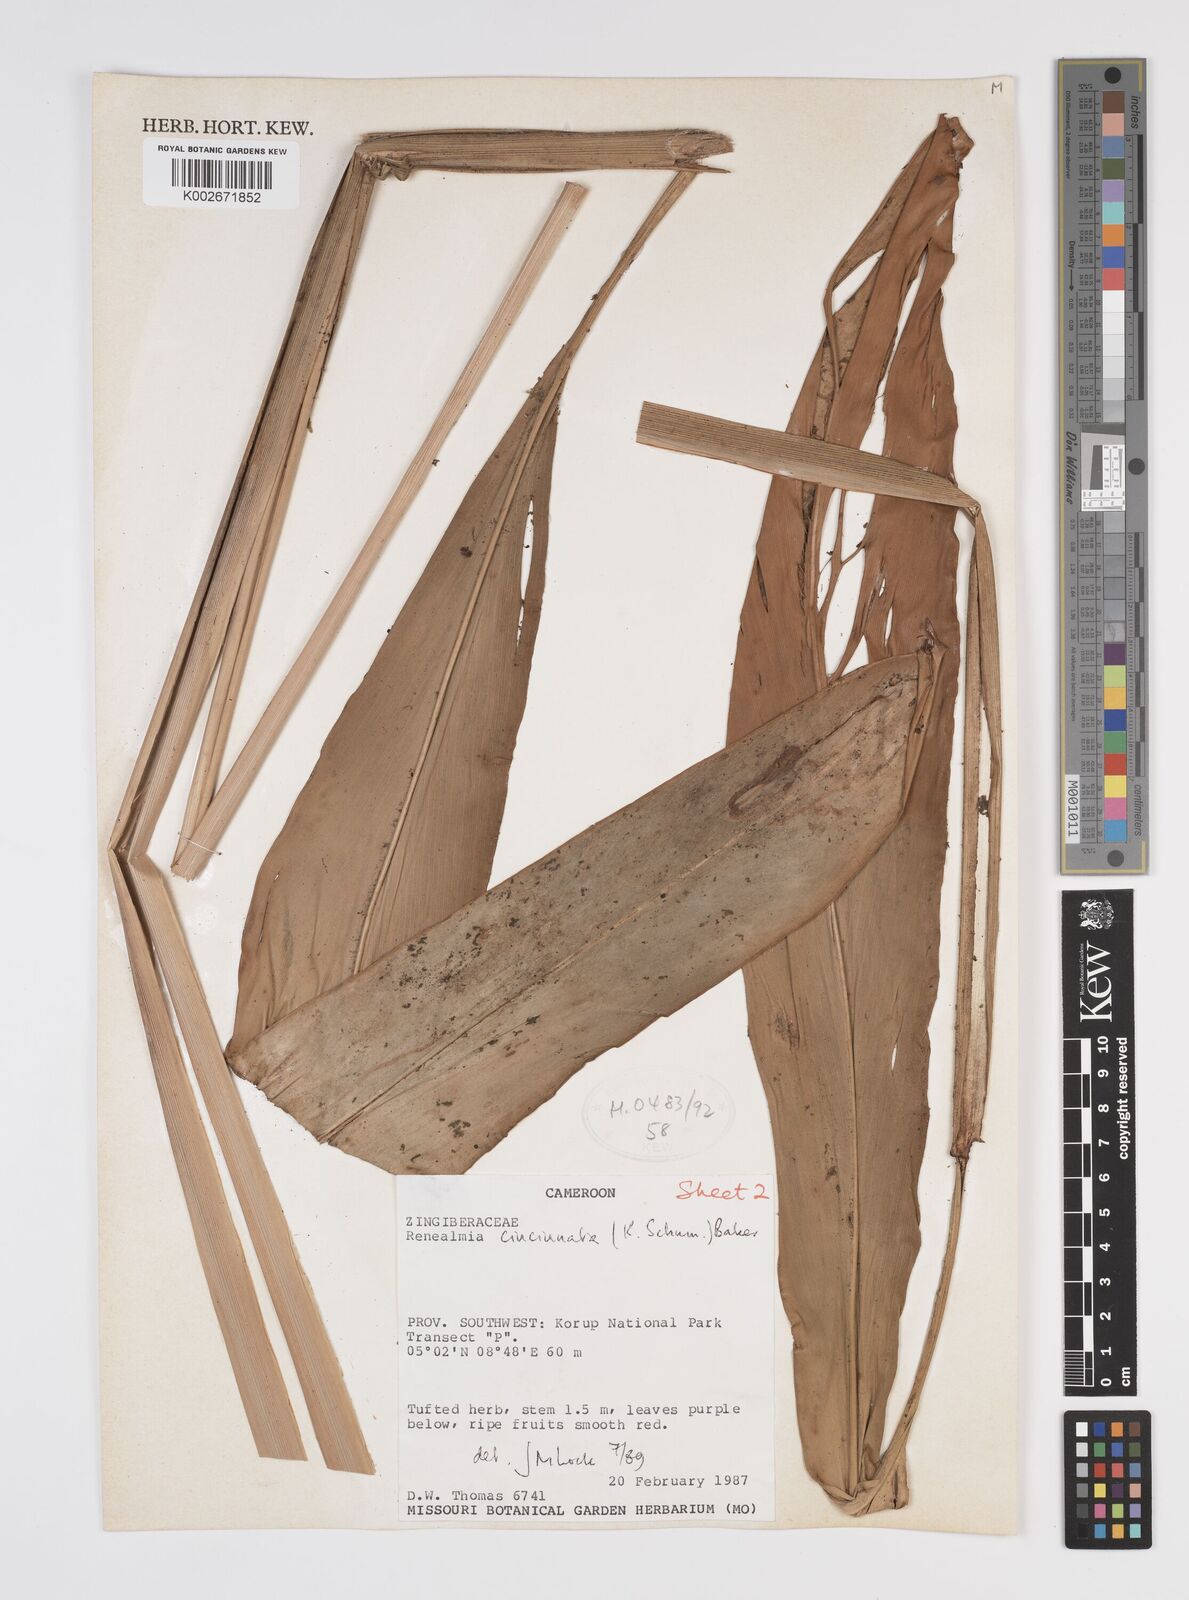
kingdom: Plantae
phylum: Tracheophyta
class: Liliopsida
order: Zingiberales
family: Zingiberaceae
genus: Renealmia
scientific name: Renealmia cincinnata
